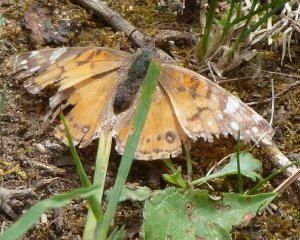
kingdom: Animalia
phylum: Arthropoda
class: Insecta
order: Lepidoptera
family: Nymphalidae
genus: Vanessa
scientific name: Vanessa virginiensis
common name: American Lady
